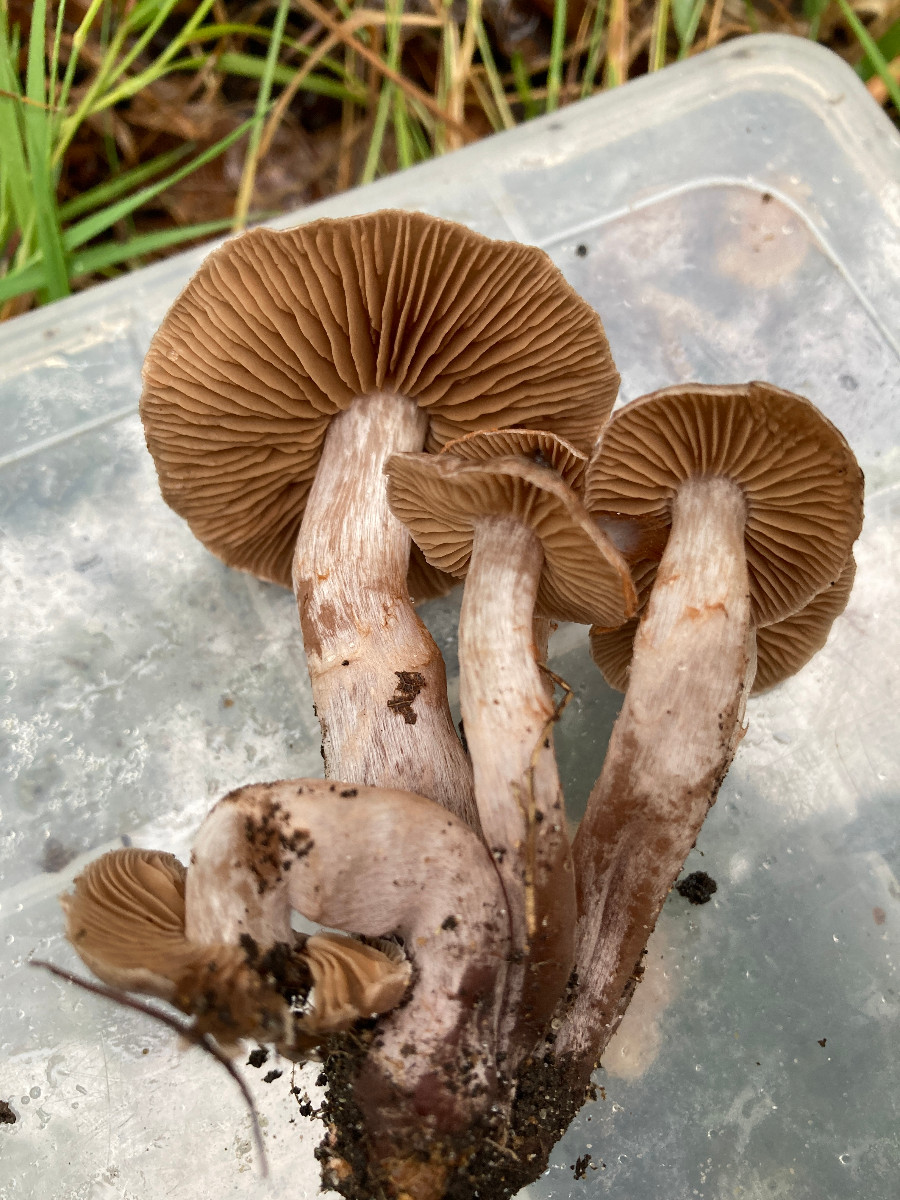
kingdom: Fungi
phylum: Basidiomycota
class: Agaricomycetes
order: Agaricales
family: Cortinariaceae
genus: Cortinarius
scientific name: Cortinarius
